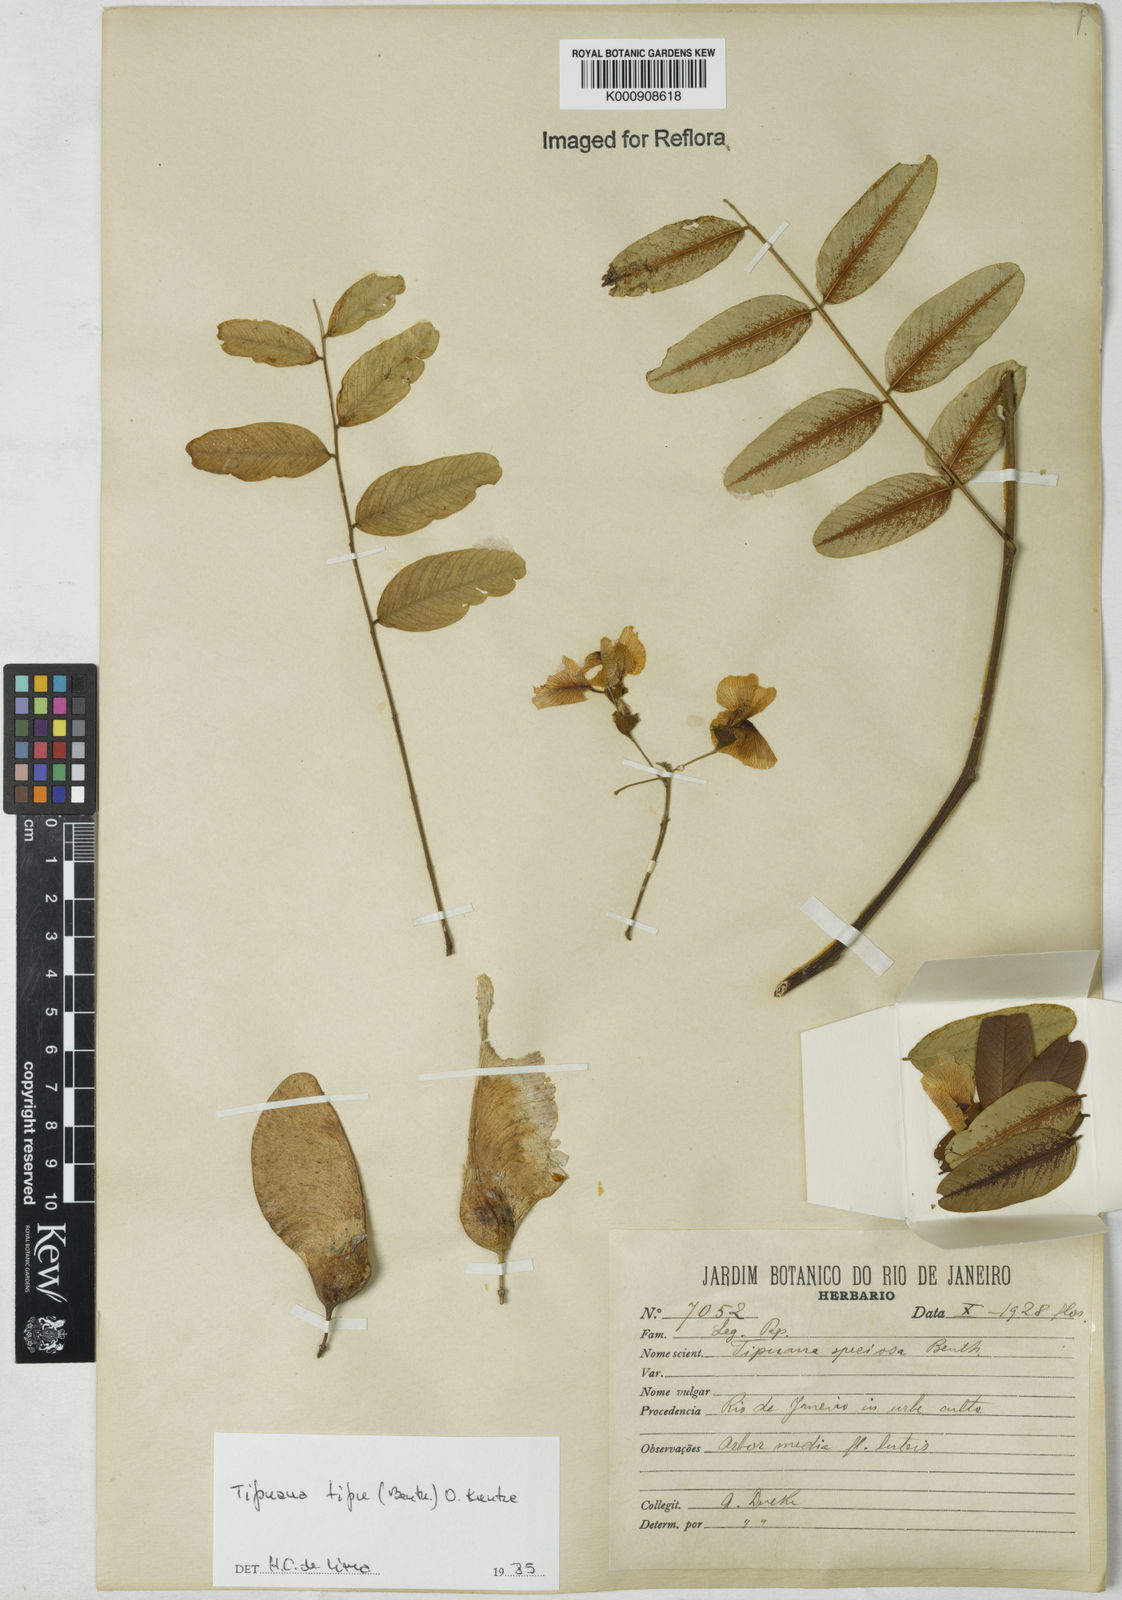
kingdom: Plantae
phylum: Tracheophyta
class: Magnoliopsida
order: Fabales
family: Fabaceae
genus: Tipuana
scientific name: Tipuana tipu
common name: Tiputree
